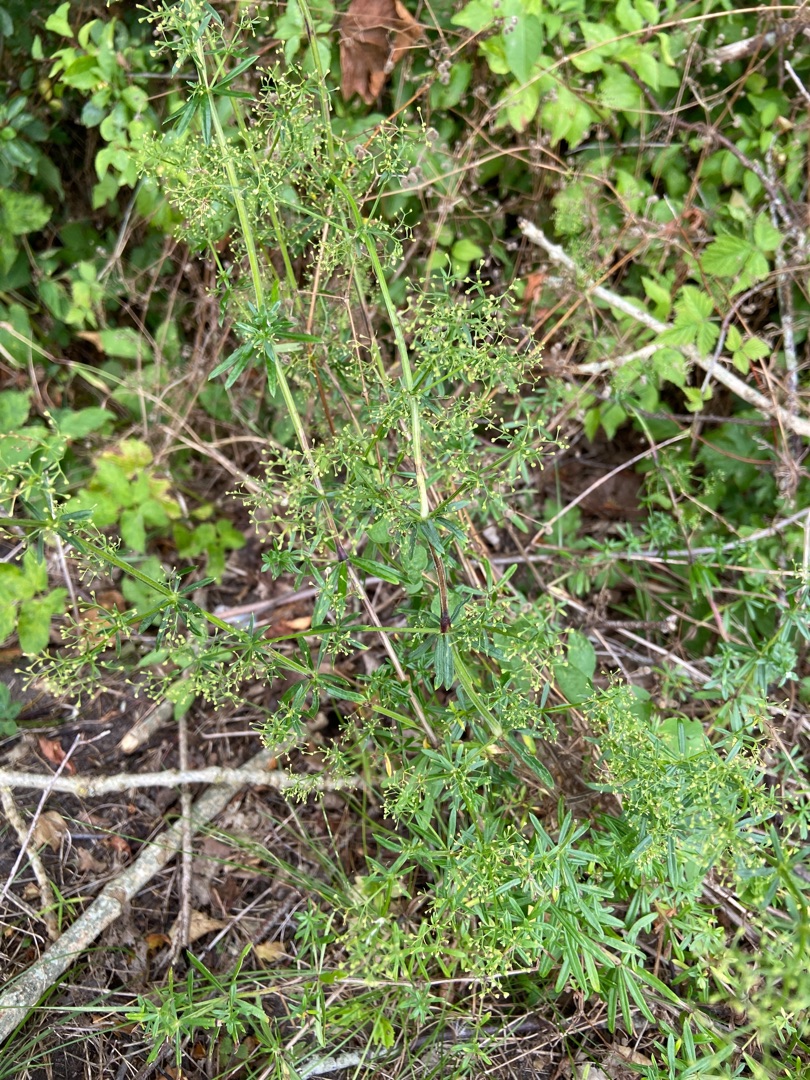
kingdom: Plantae
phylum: Tracheophyta
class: Magnoliopsida
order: Gentianales
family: Rubiaceae
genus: Galium
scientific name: Galium mollugo
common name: Hvid snerre
